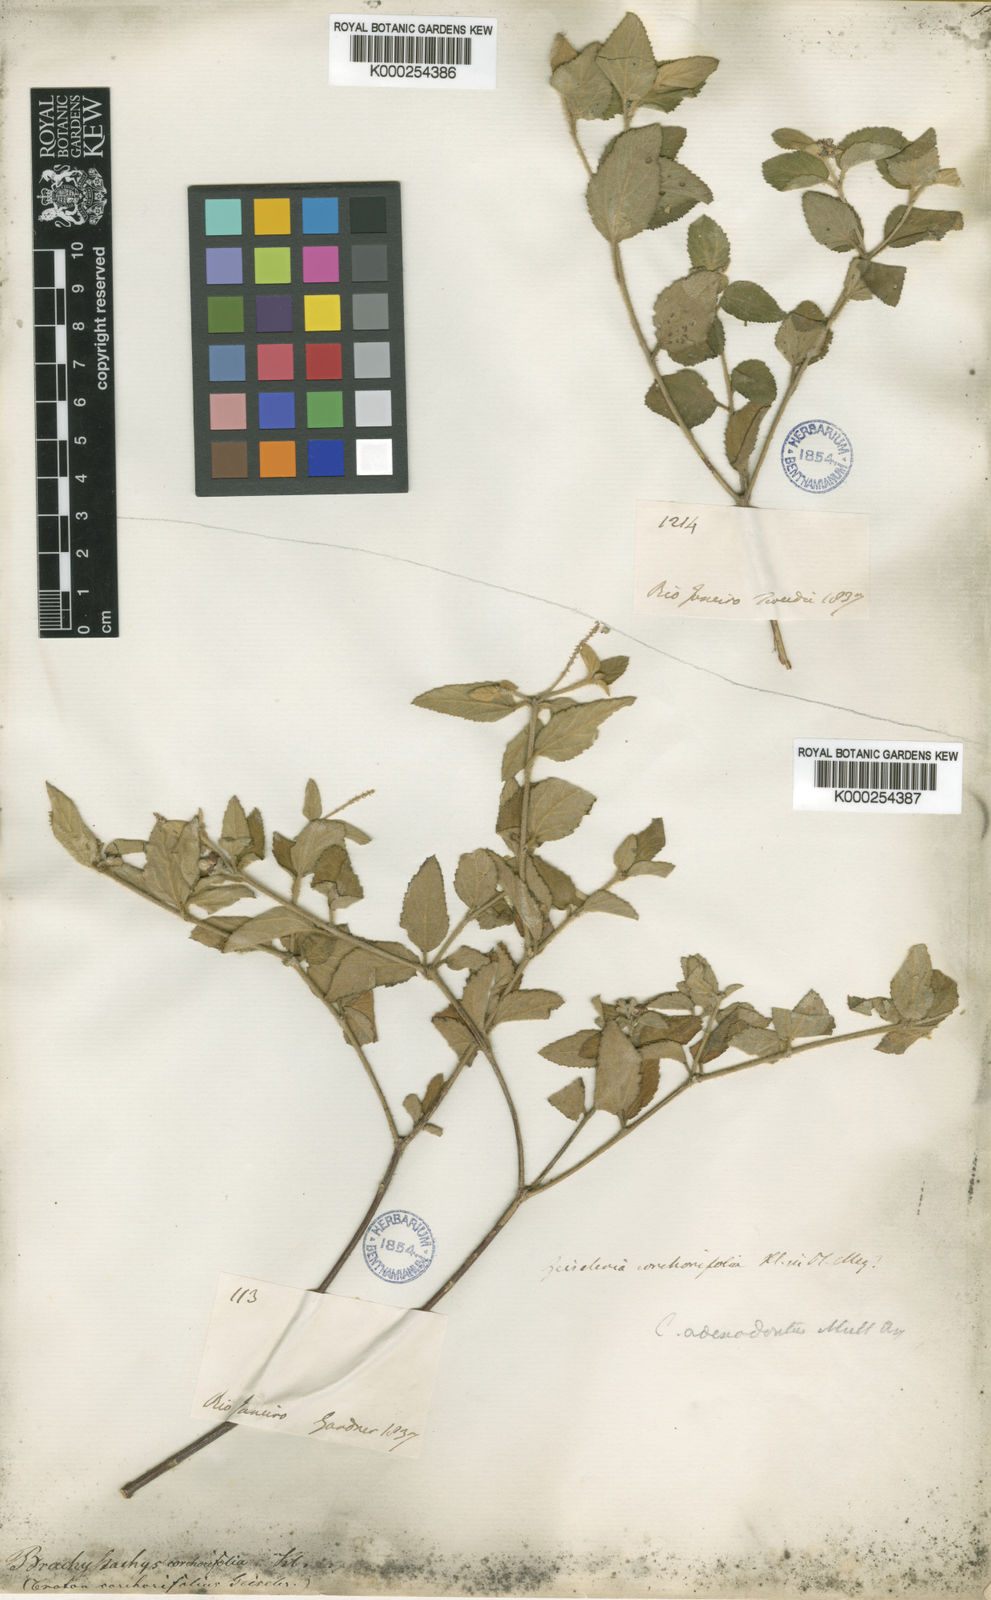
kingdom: Plantae
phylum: Tracheophyta
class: Magnoliopsida
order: Malpighiales
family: Euphorbiaceae
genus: Croton
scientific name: Croton
